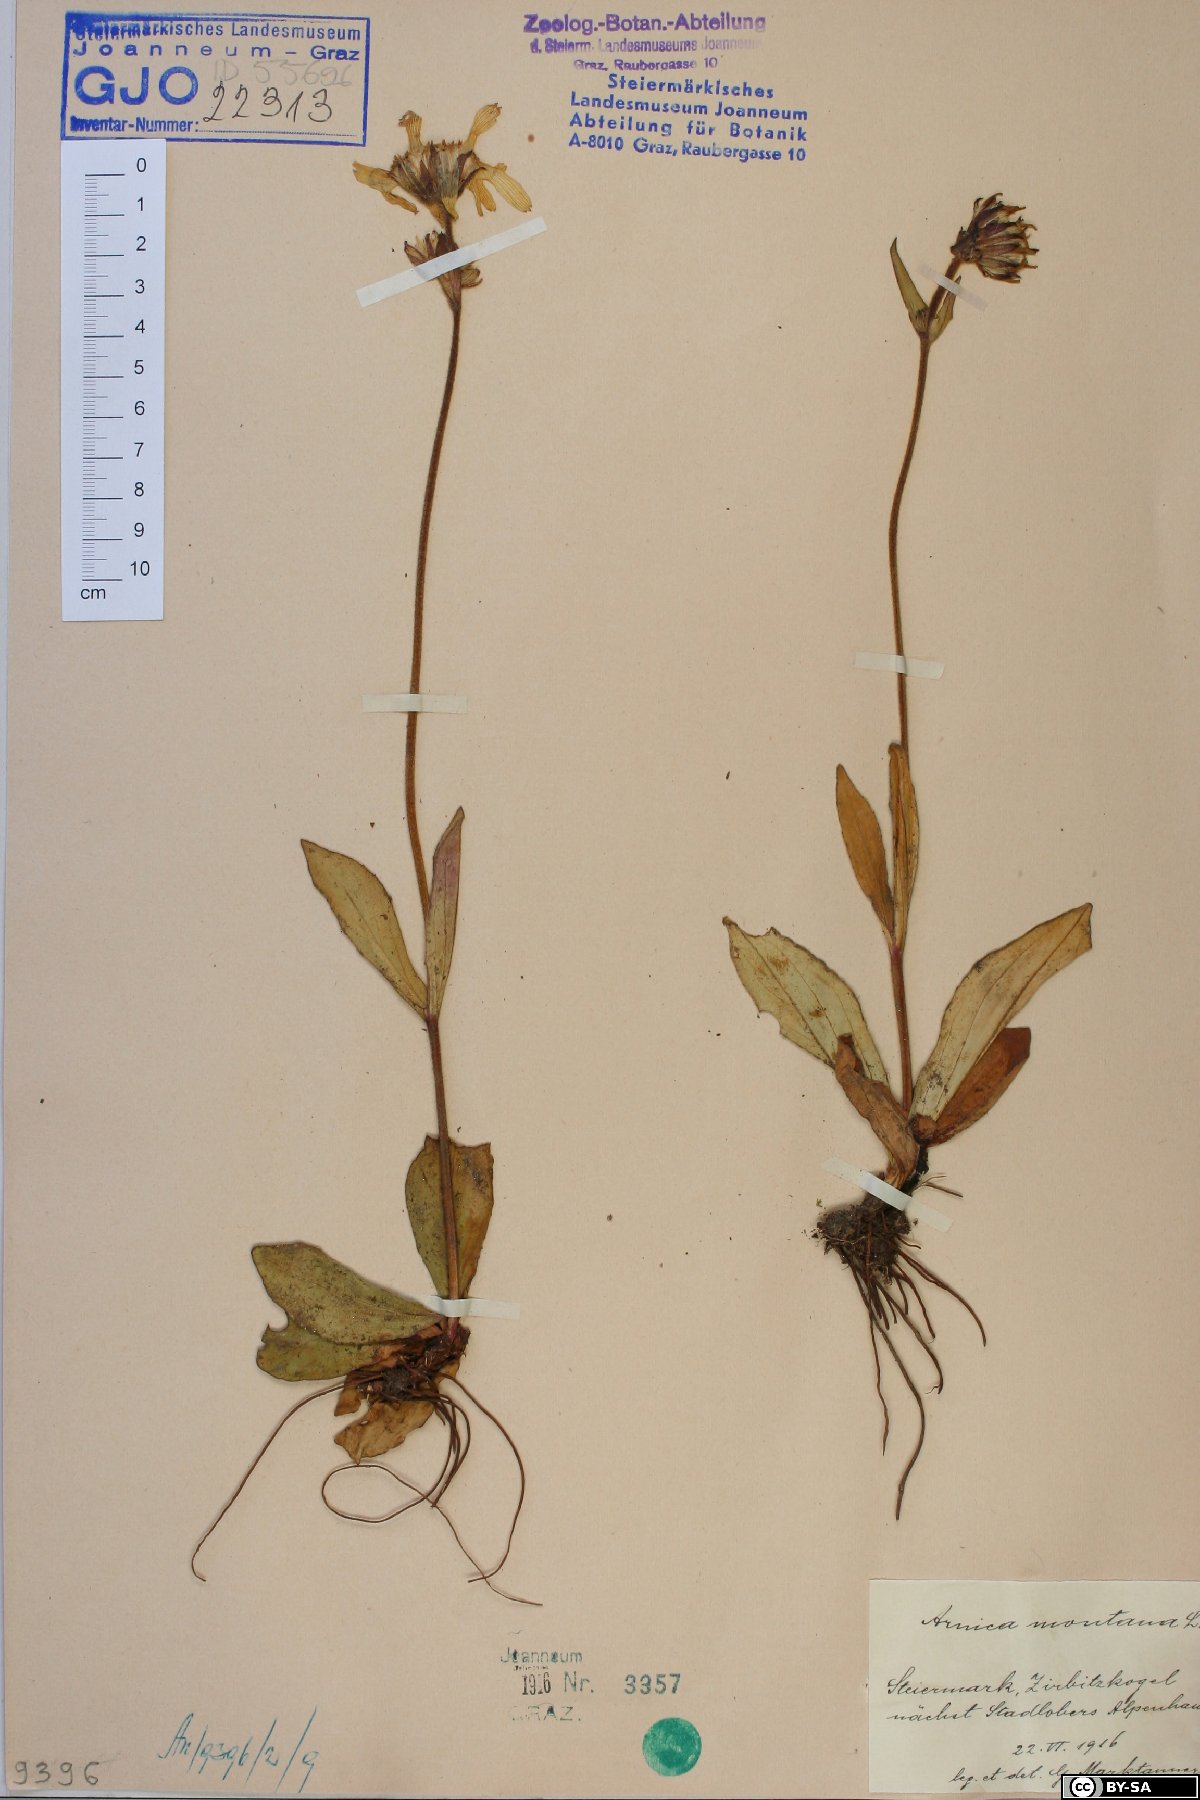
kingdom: Plantae
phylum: Tracheophyta
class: Magnoliopsida
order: Asterales
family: Asteraceae
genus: Arnica
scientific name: Arnica montana
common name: Leopard's bane
